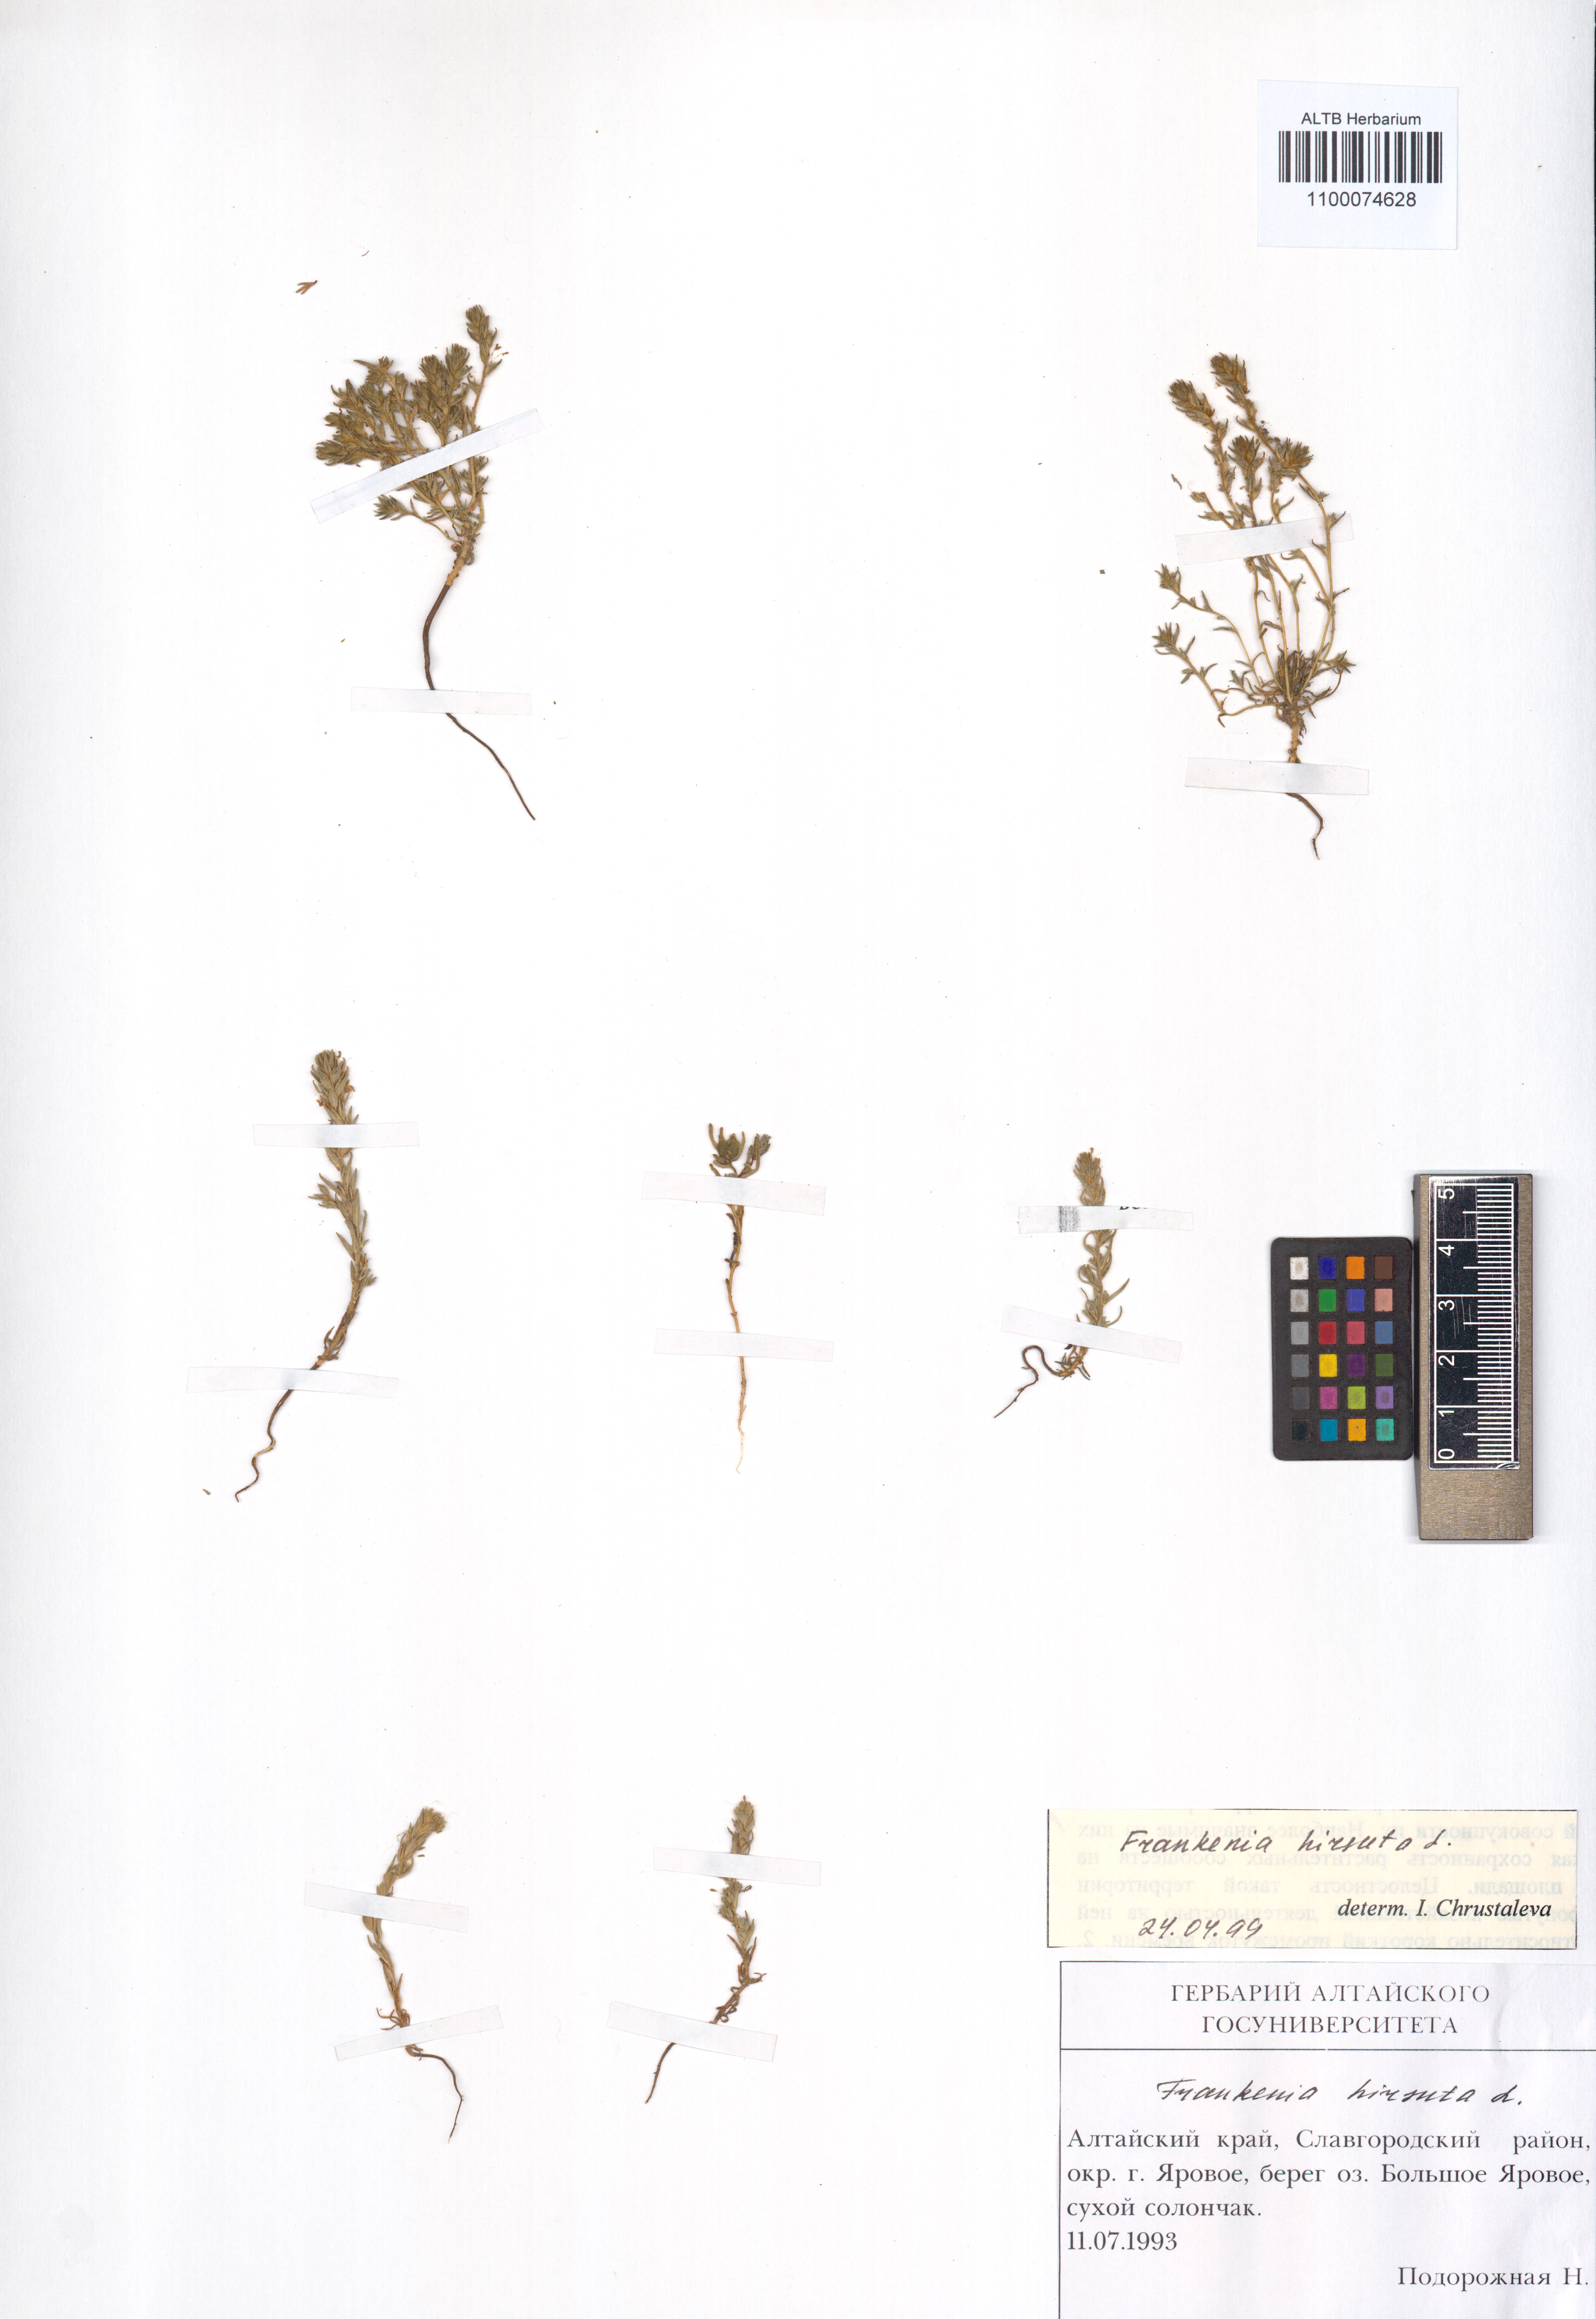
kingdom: Plantae
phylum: Tracheophyta
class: Magnoliopsida
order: Caryophyllales
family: Frankeniaceae
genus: Frankenia
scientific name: Frankenia hirsuta
